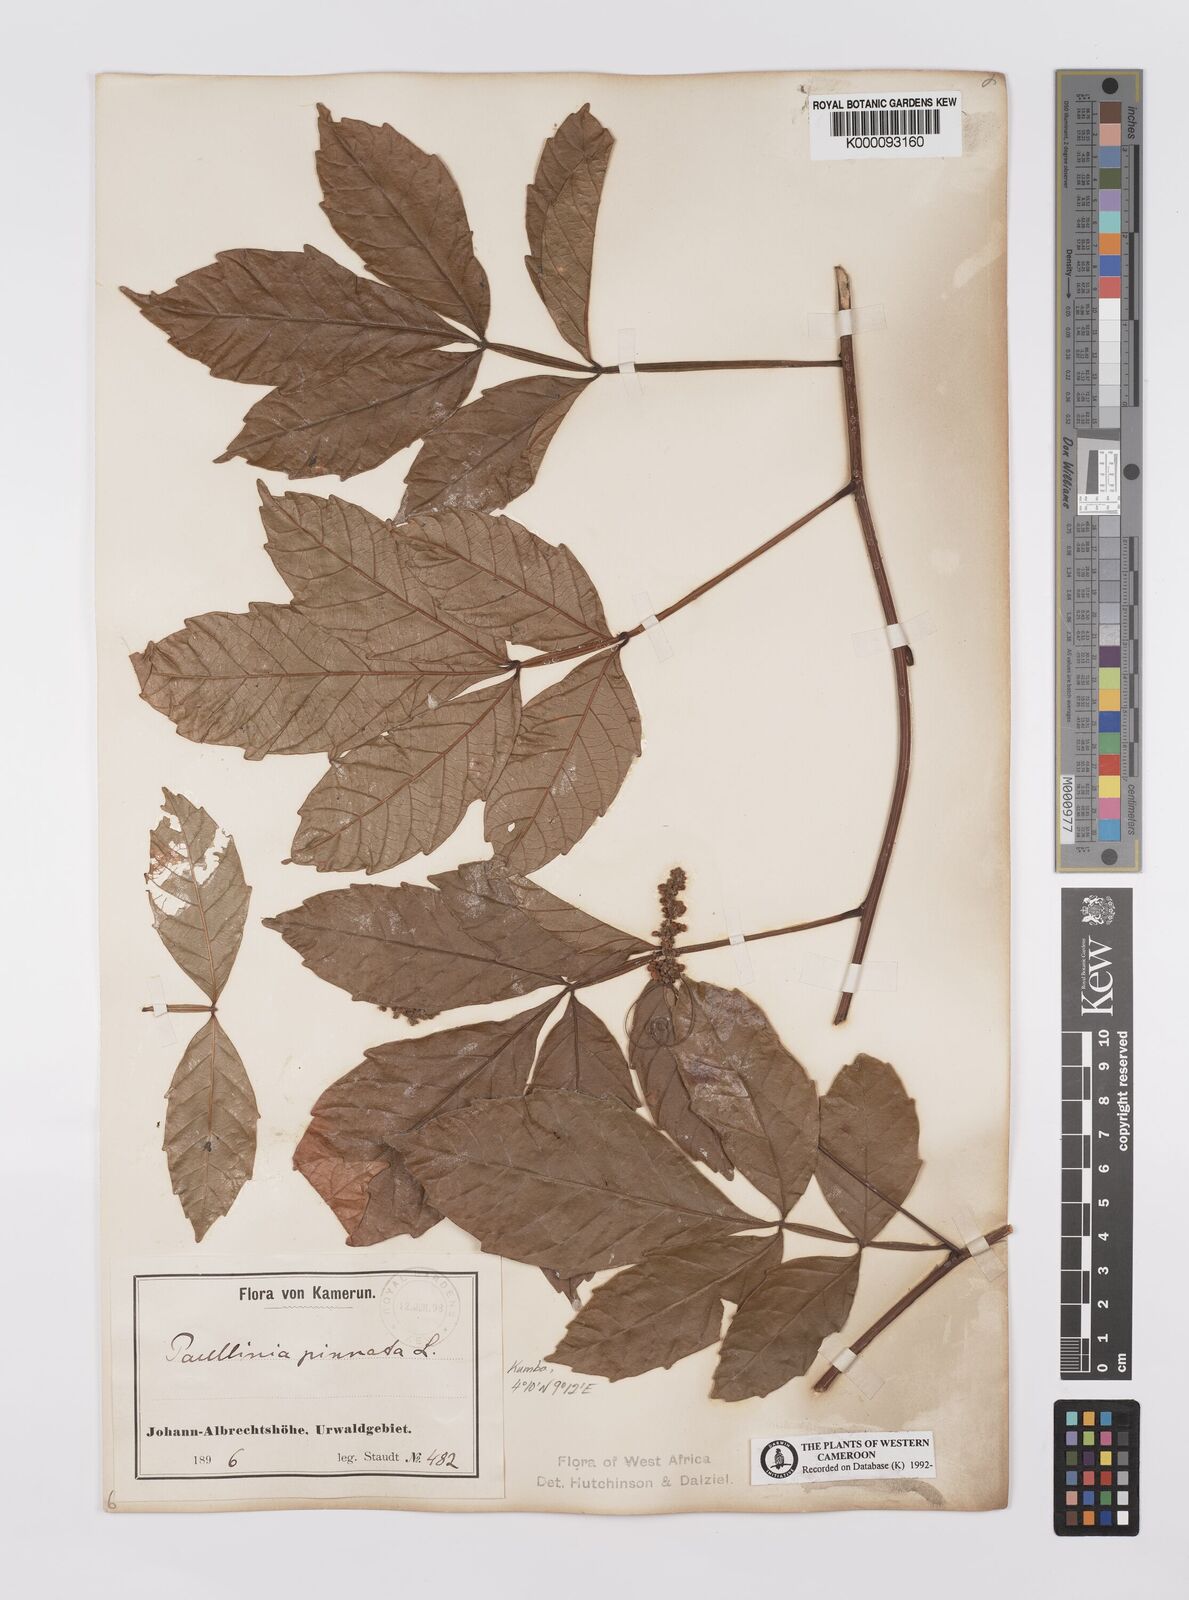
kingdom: Plantae
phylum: Tracheophyta
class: Magnoliopsida
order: Sapindales
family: Sapindaceae
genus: Paullinia
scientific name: Paullinia pinnata
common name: Barbasco
